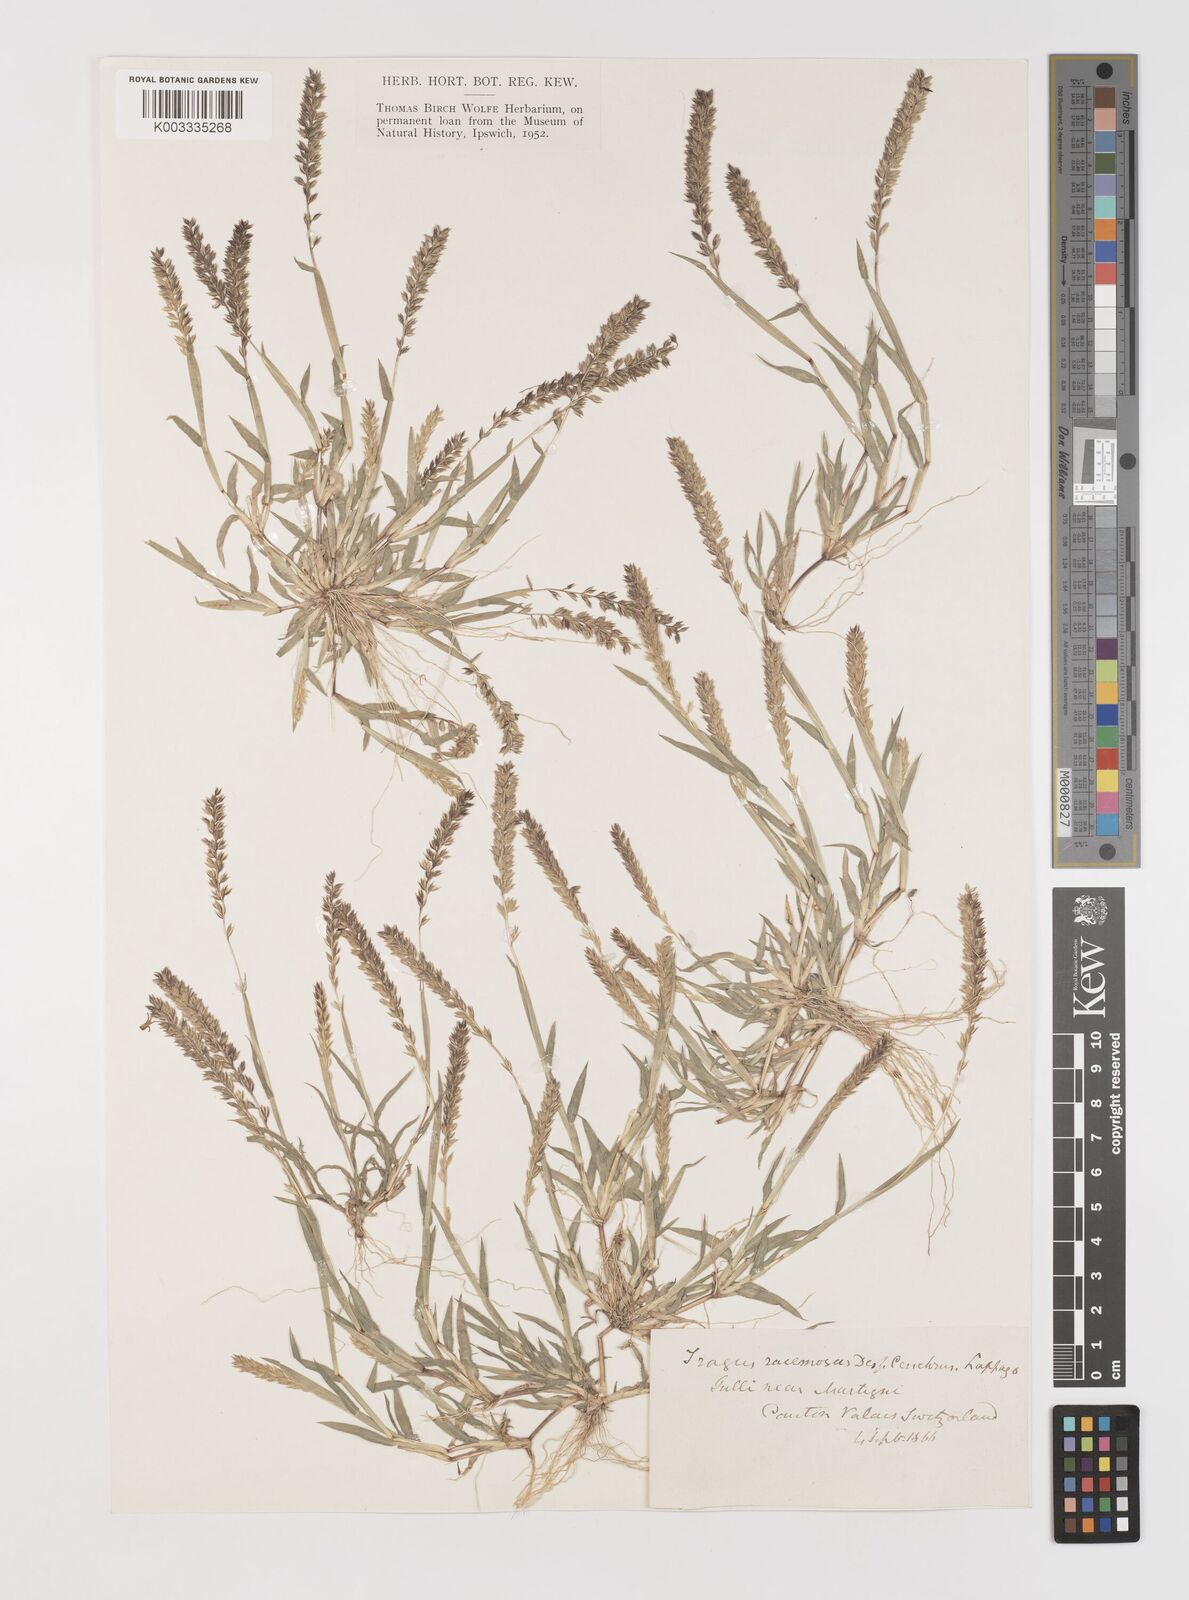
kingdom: Plantae
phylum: Tracheophyta
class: Liliopsida
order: Poales
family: Poaceae
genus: Tragus
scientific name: Tragus racemosus
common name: European bur-grass
